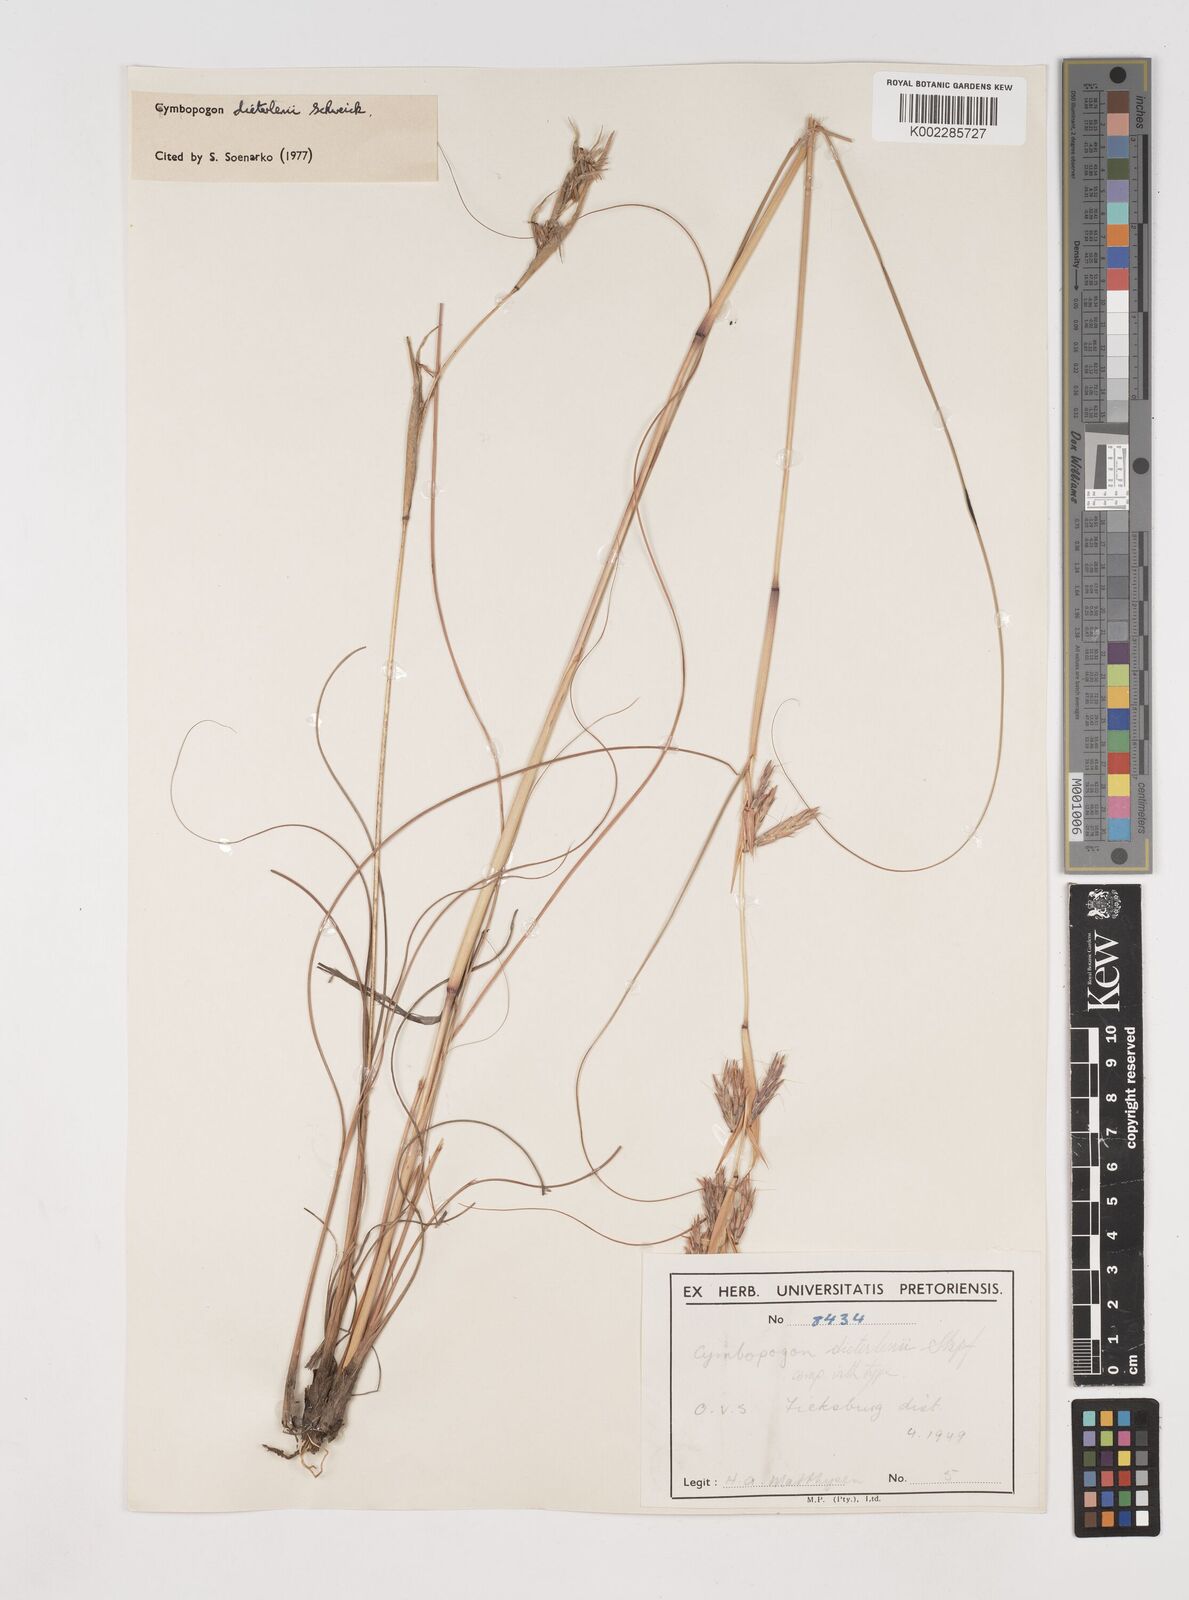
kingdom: Plantae
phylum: Tracheophyta
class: Liliopsida
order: Poales
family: Poaceae
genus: Cymbopogon
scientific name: Cymbopogon dieterlenii
